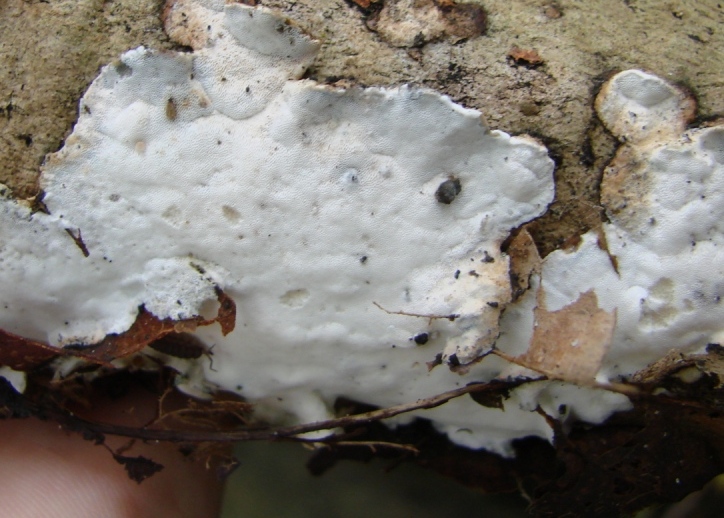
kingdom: Fungi
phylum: Basidiomycota
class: Agaricomycetes
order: Polyporales
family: Incrustoporiaceae
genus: Skeletocutis
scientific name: Skeletocutis nemoralis
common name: stor krystalporesvamp
